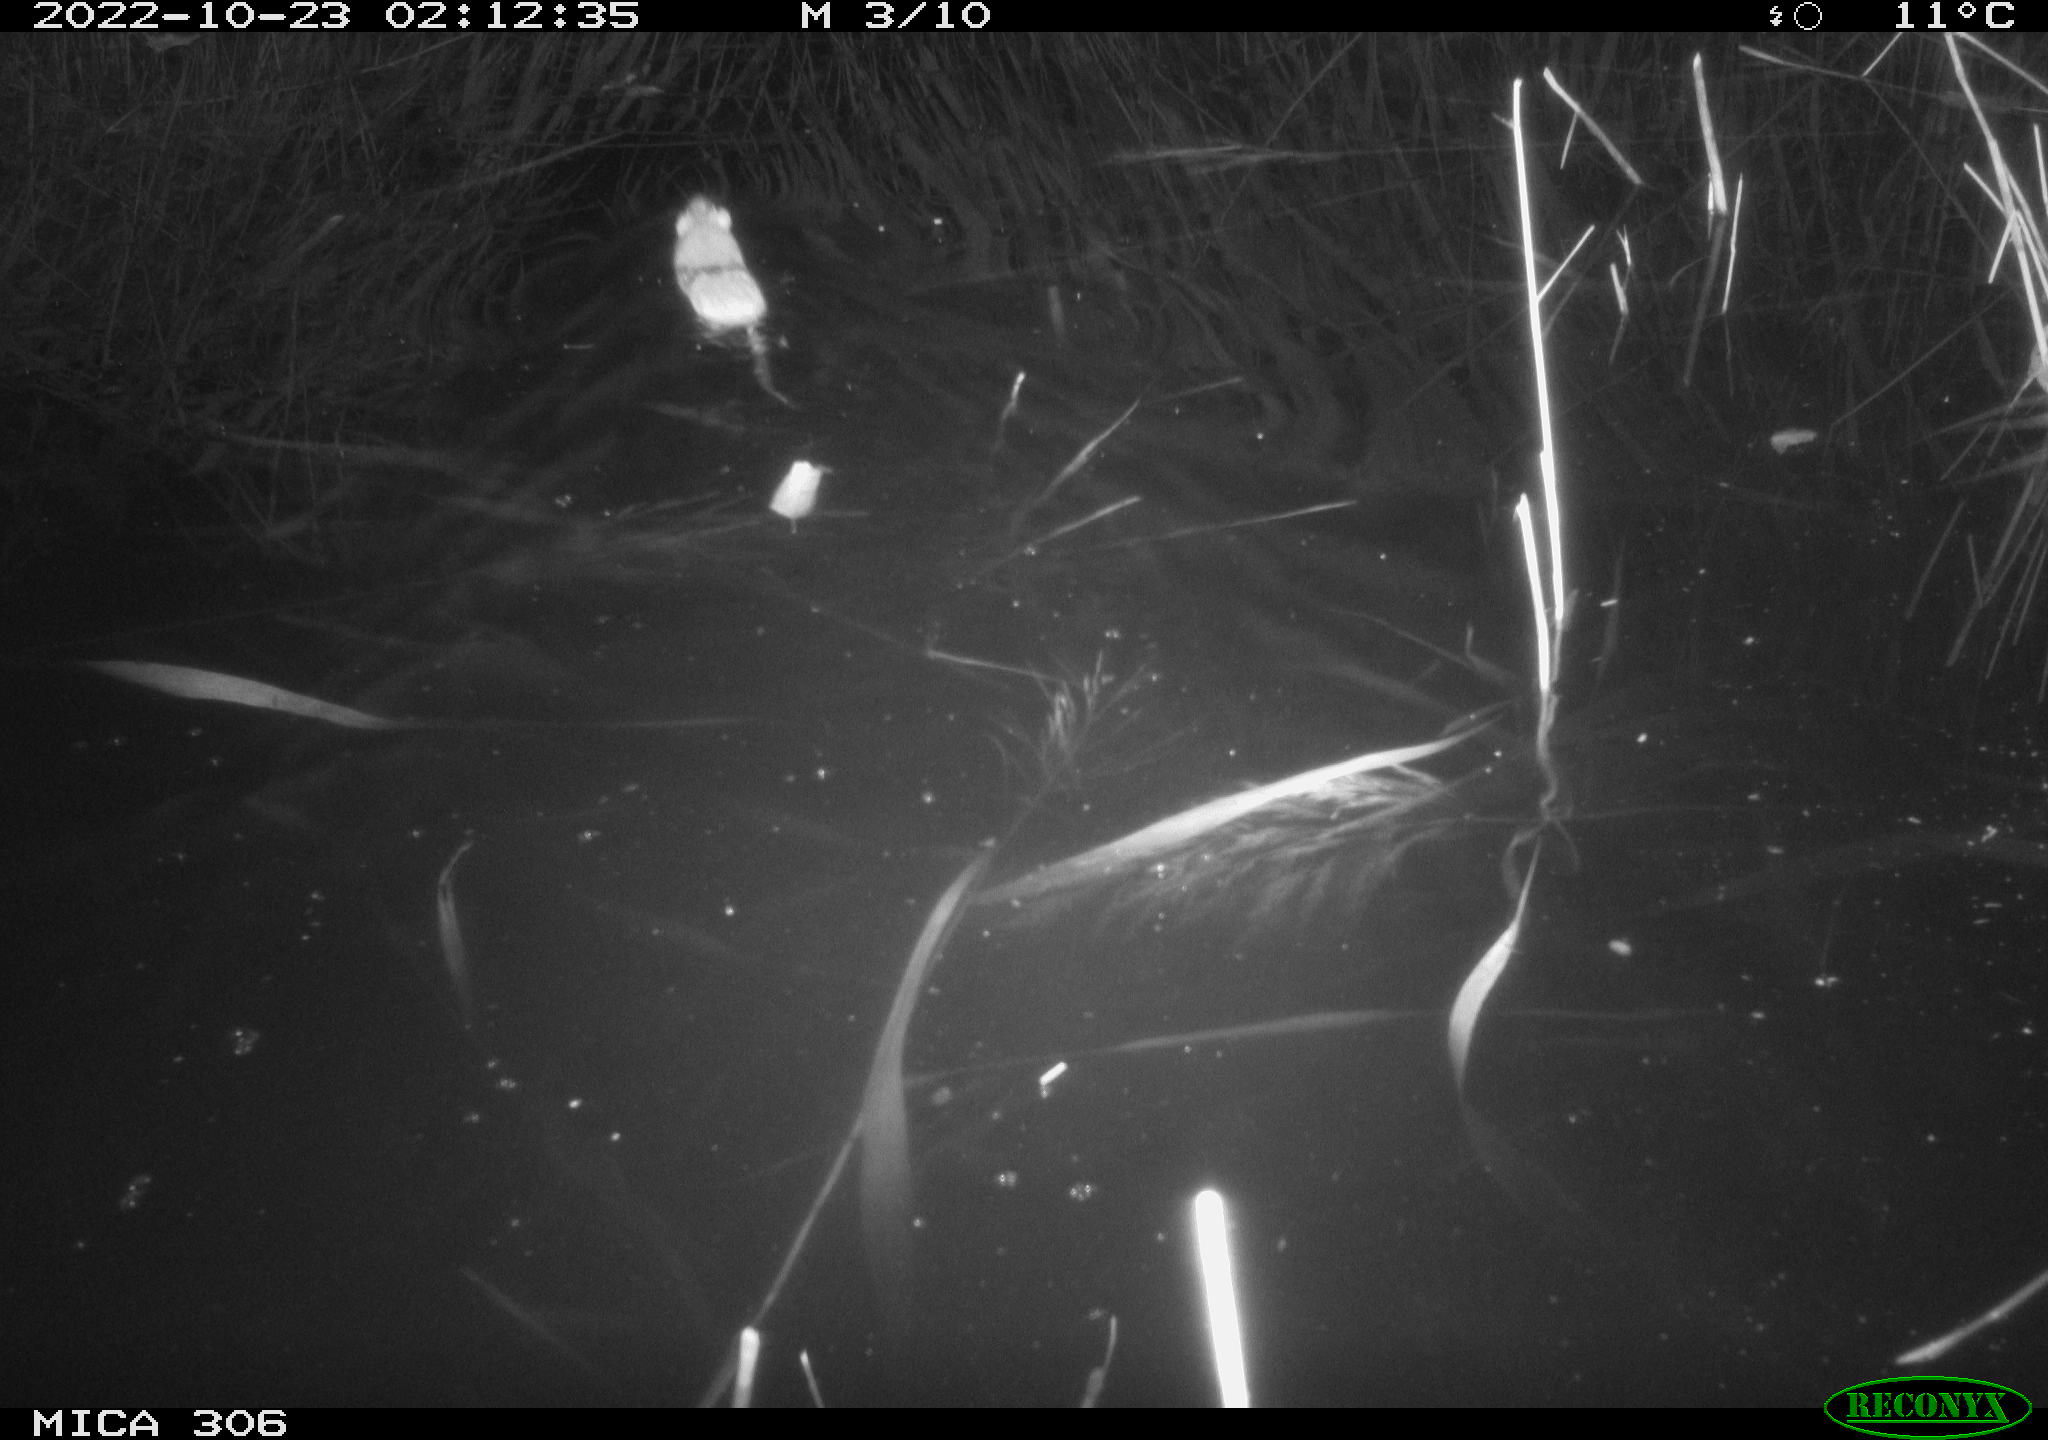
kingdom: Animalia
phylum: Chordata
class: Mammalia
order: Rodentia
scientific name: Rodentia
